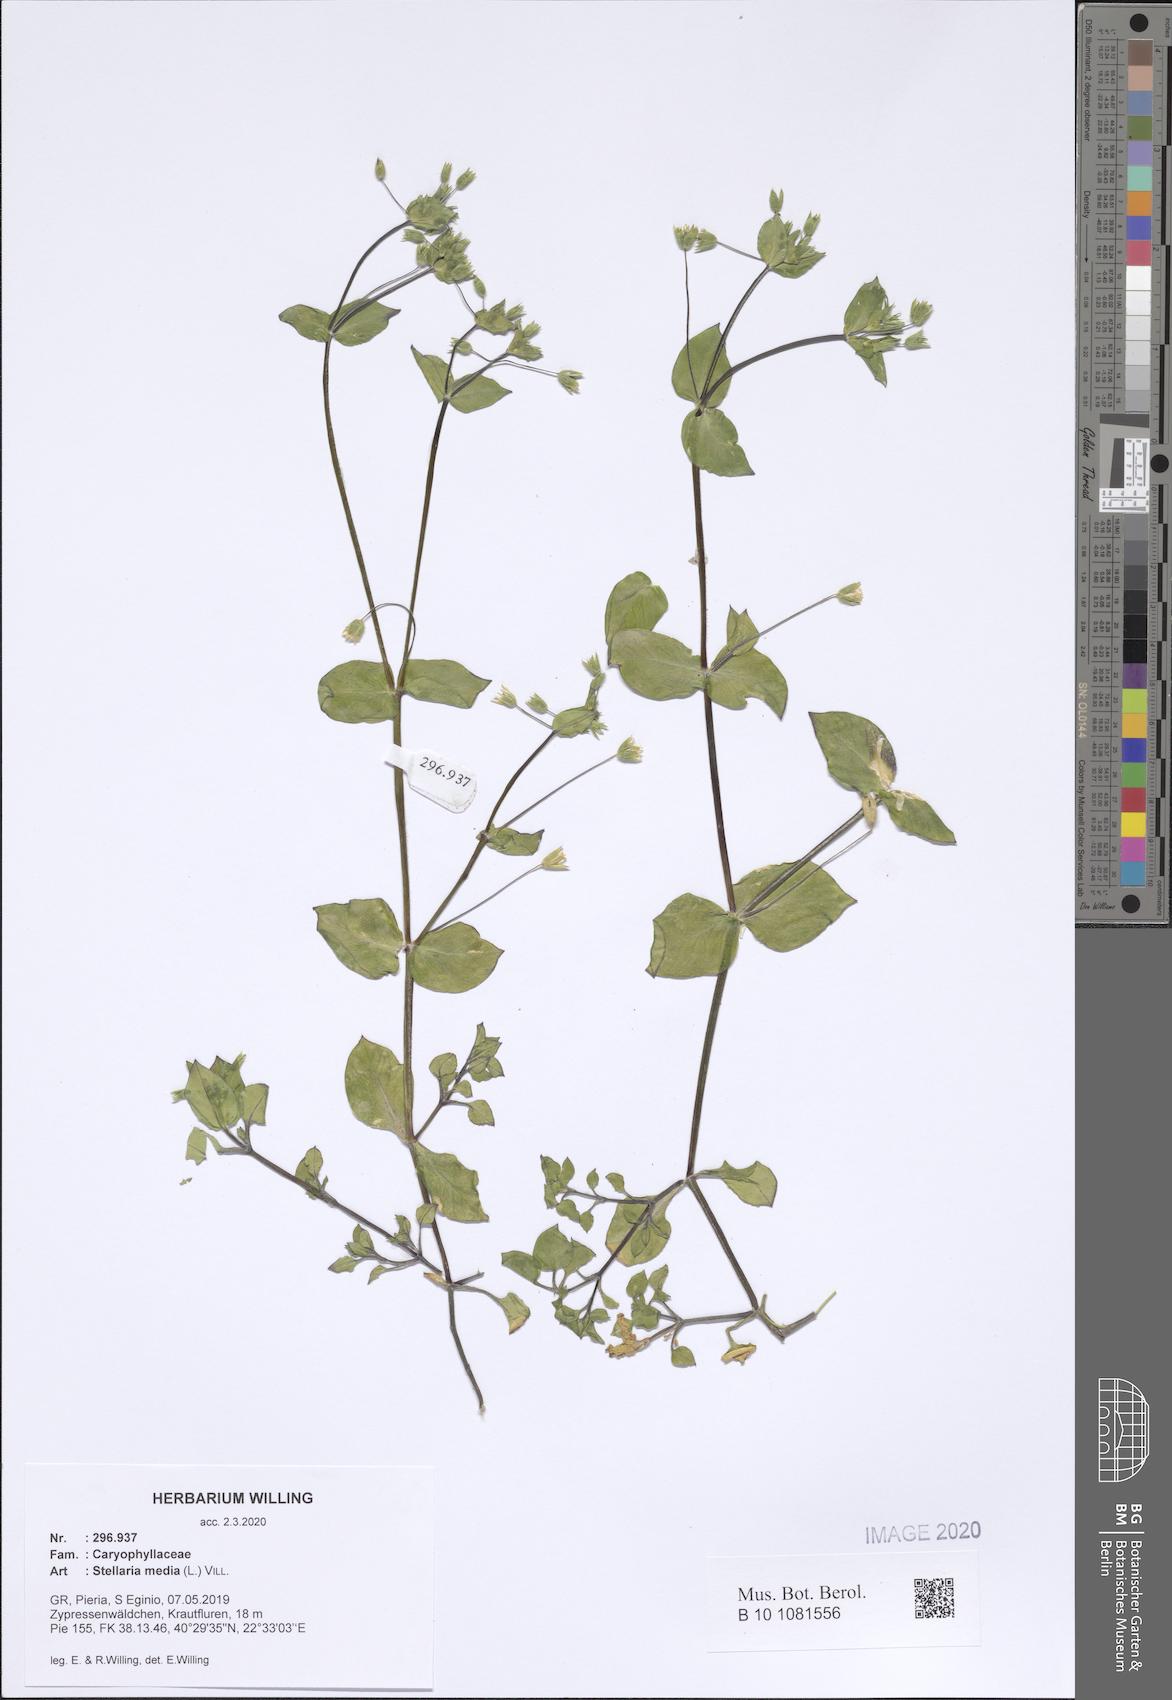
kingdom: Plantae
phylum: Tracheophyta
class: Magnoliopsida
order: Caryophyllales
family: Caryophyllaceae
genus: Stellaria
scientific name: Stellaria media
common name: Common chickweed
